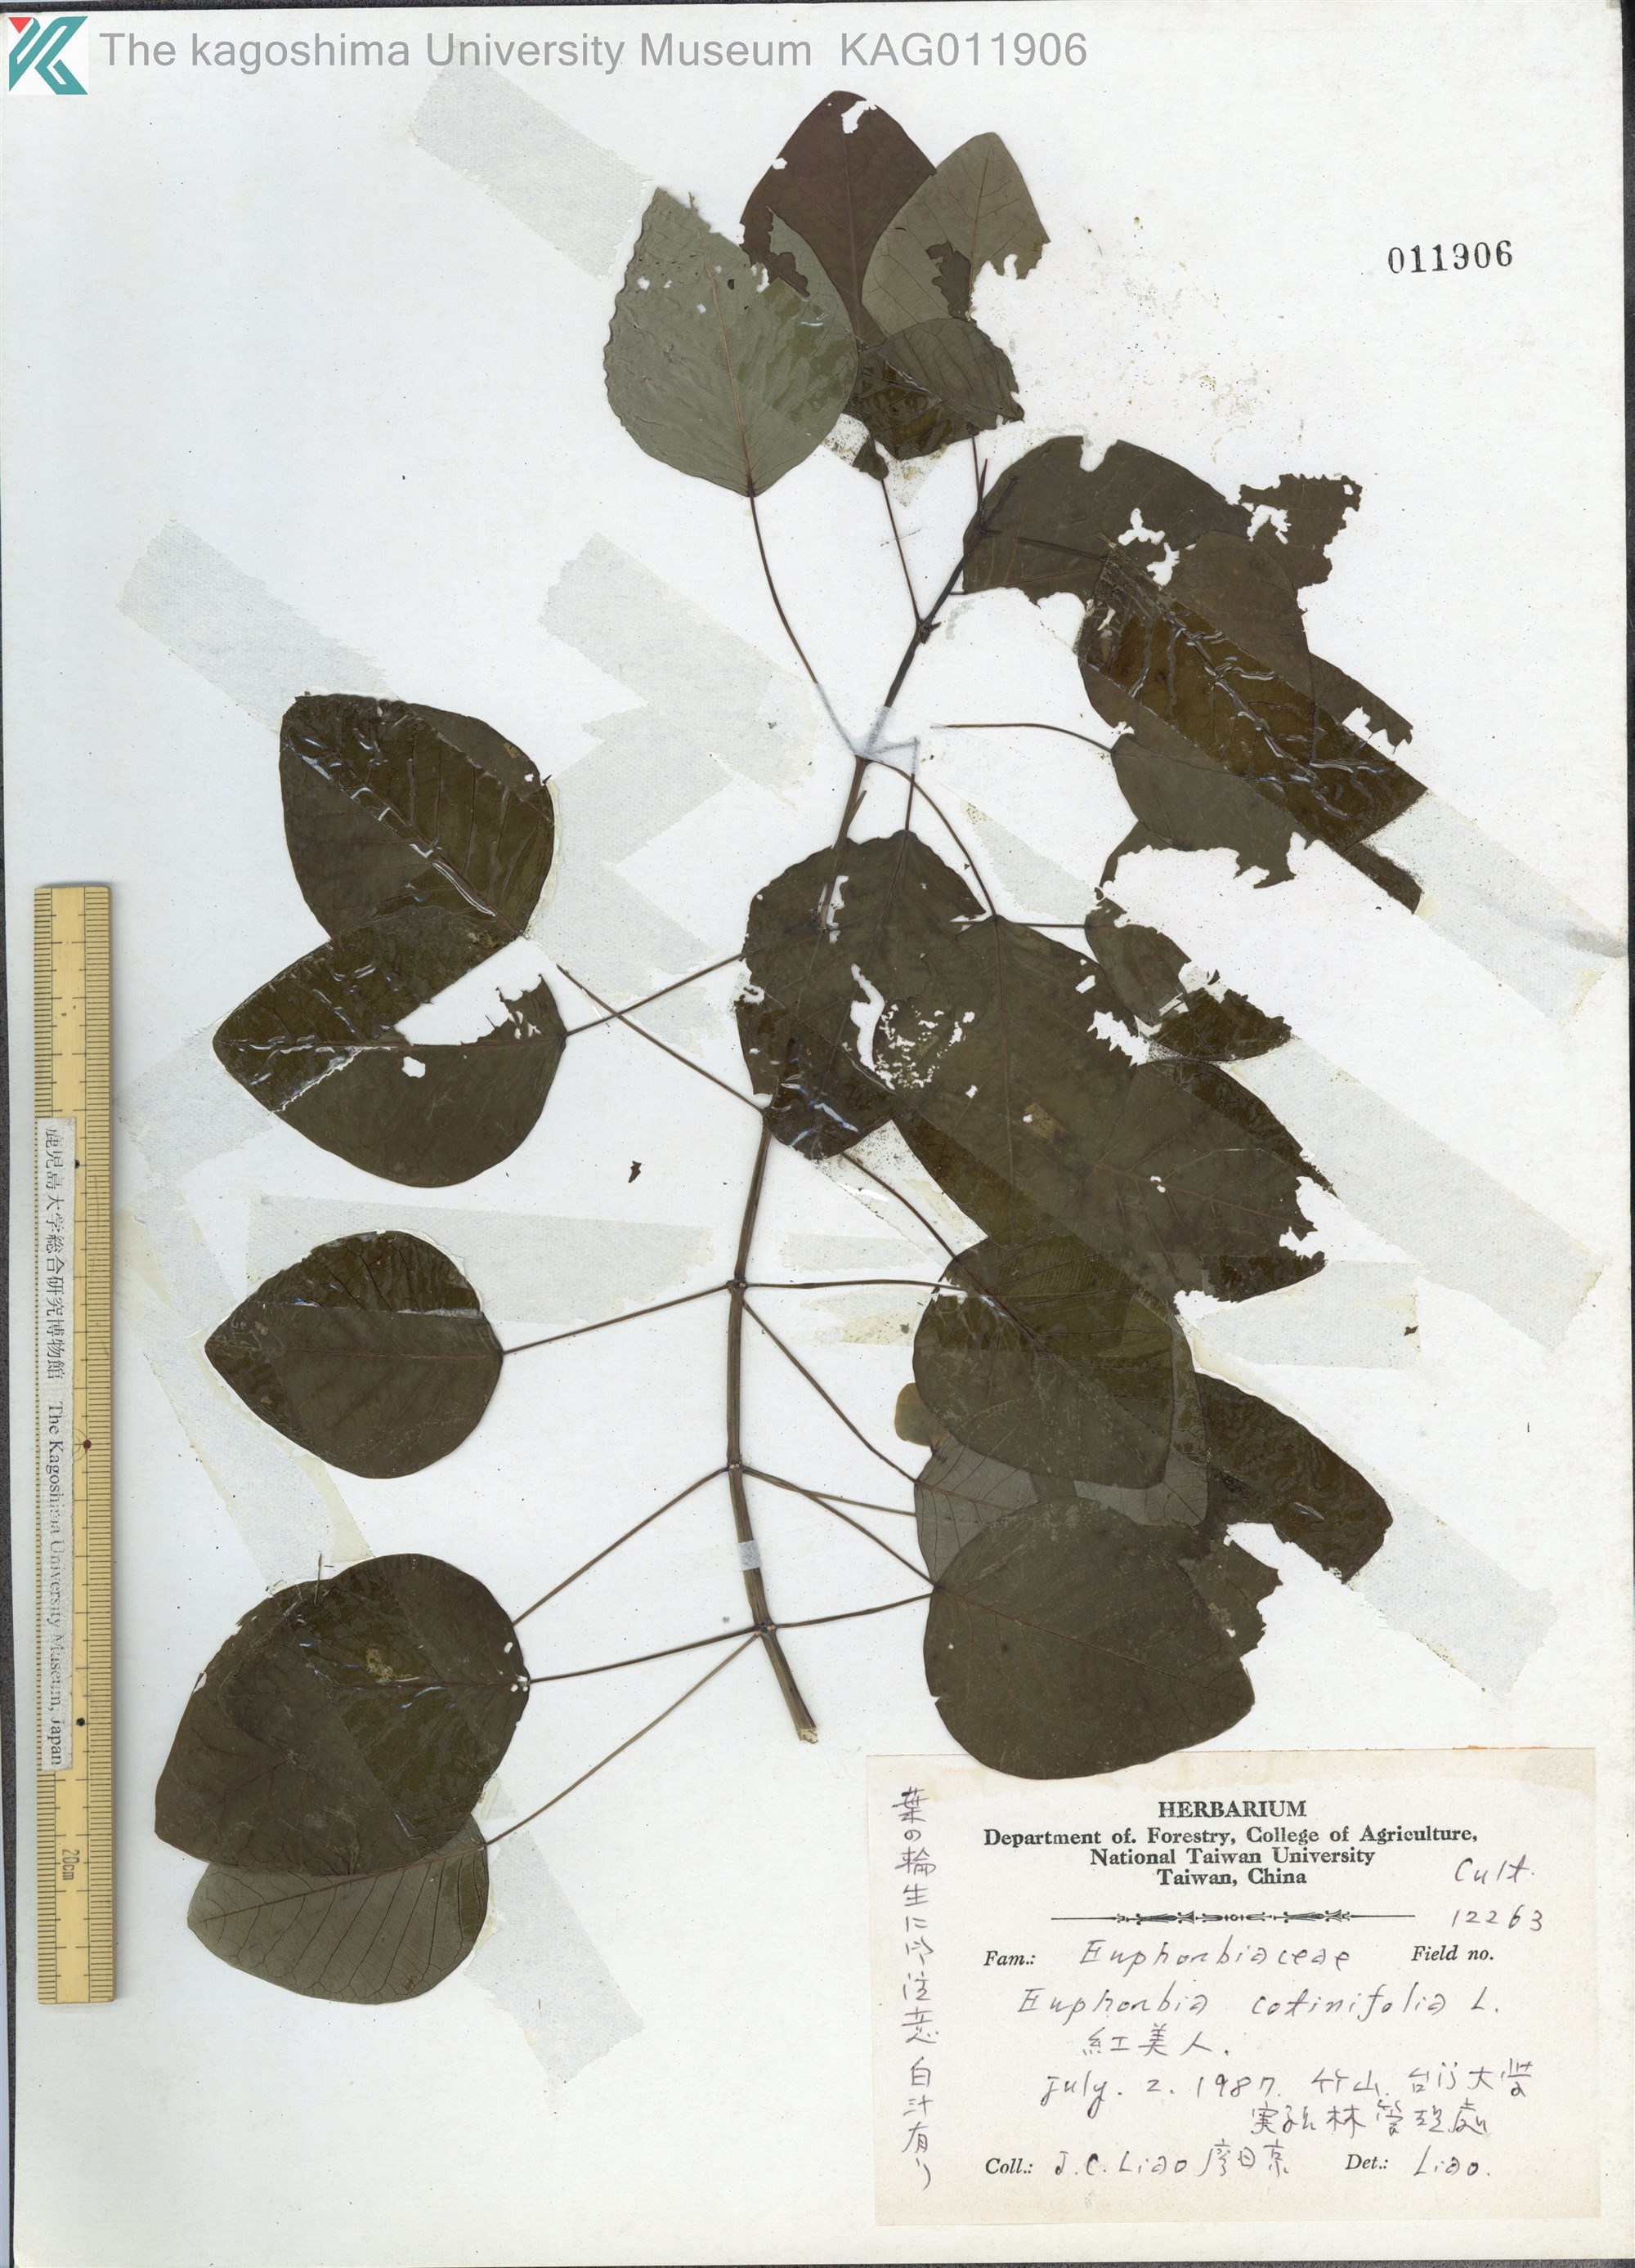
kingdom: Plantae
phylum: Tracheophyta
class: Magnoliopsida
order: Malpighiales
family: Euphorbiaceae
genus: Euphorbia
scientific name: Euphorbia cotinifolia
